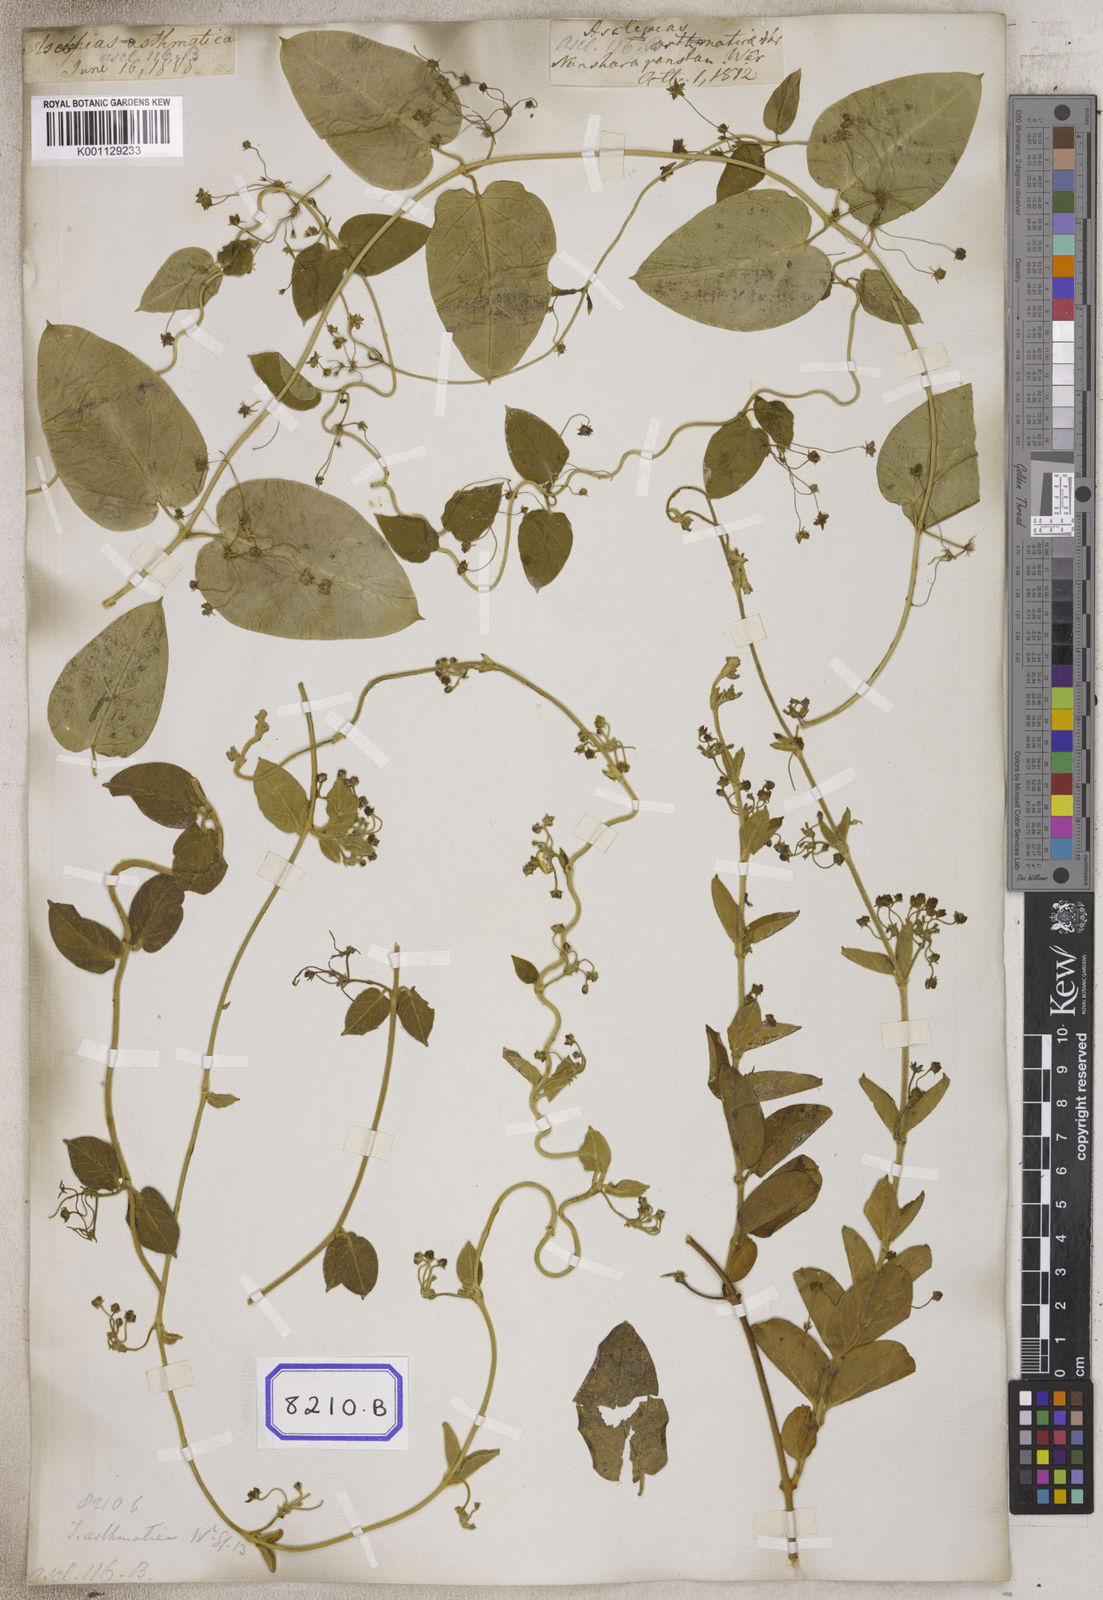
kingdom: Plantae
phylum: Tracheophyta
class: Magnoliopsida
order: Gentianales
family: Apocynaceae
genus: Vincetoxicum
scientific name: Vincetoxicum indicum
